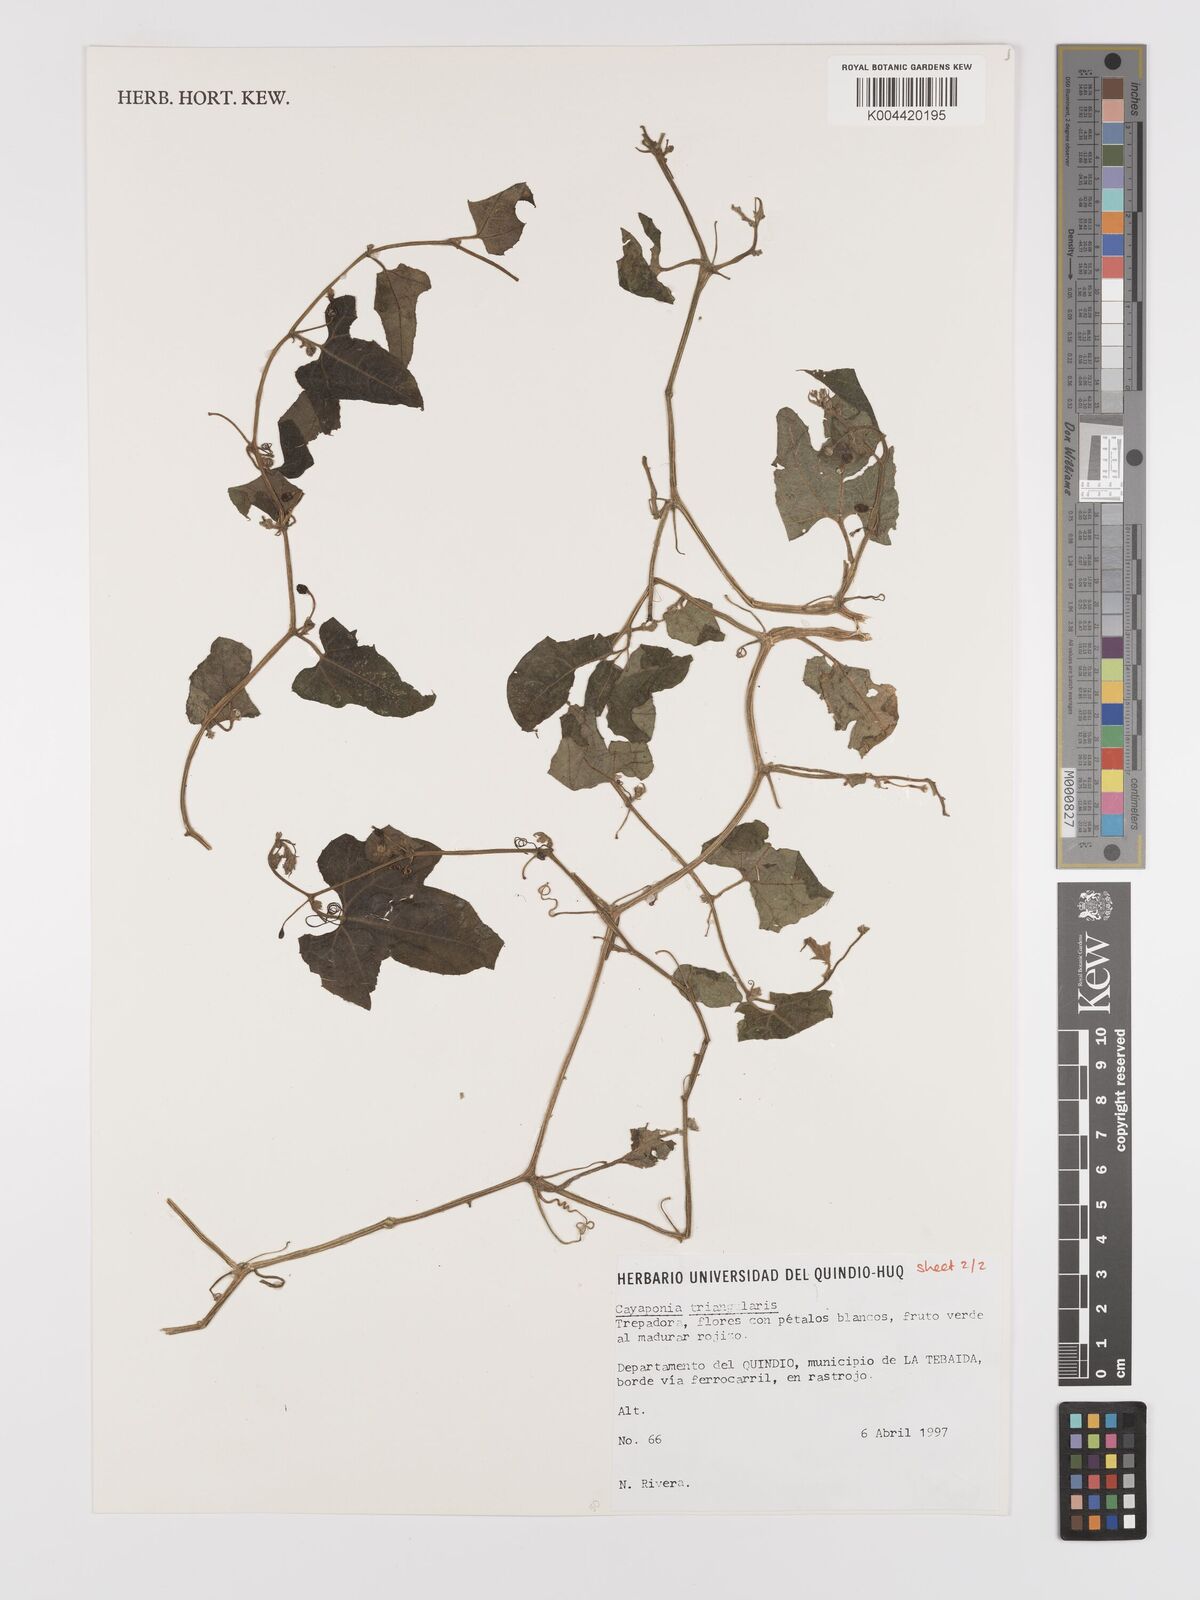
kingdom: Plantae
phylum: Tracheophyta
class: Magnoliopsida
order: Cucurbitales
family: Cucurbitaceae
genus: Cayaponia
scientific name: Cayaponia triangularis
